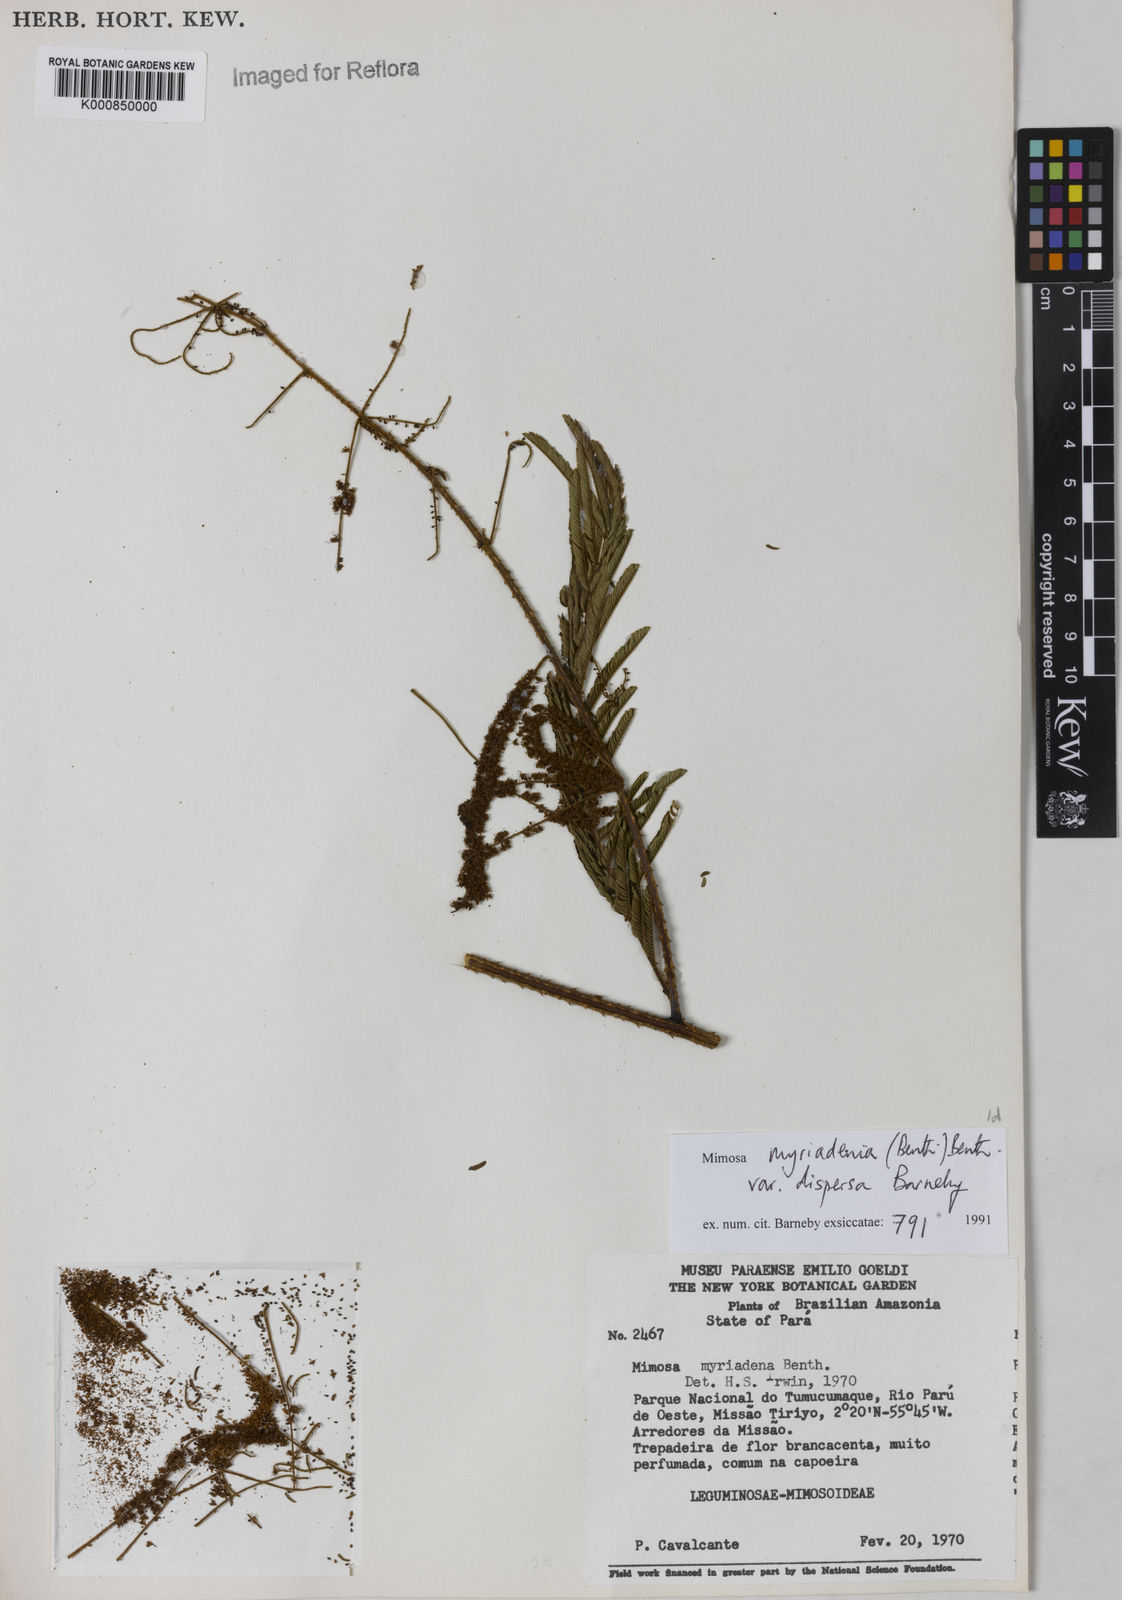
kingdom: Plantae
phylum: Tracheophyta
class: Magnoliopsida
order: Fabales
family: Fabaceae
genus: Mimosa
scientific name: Mimosa myriadenia
